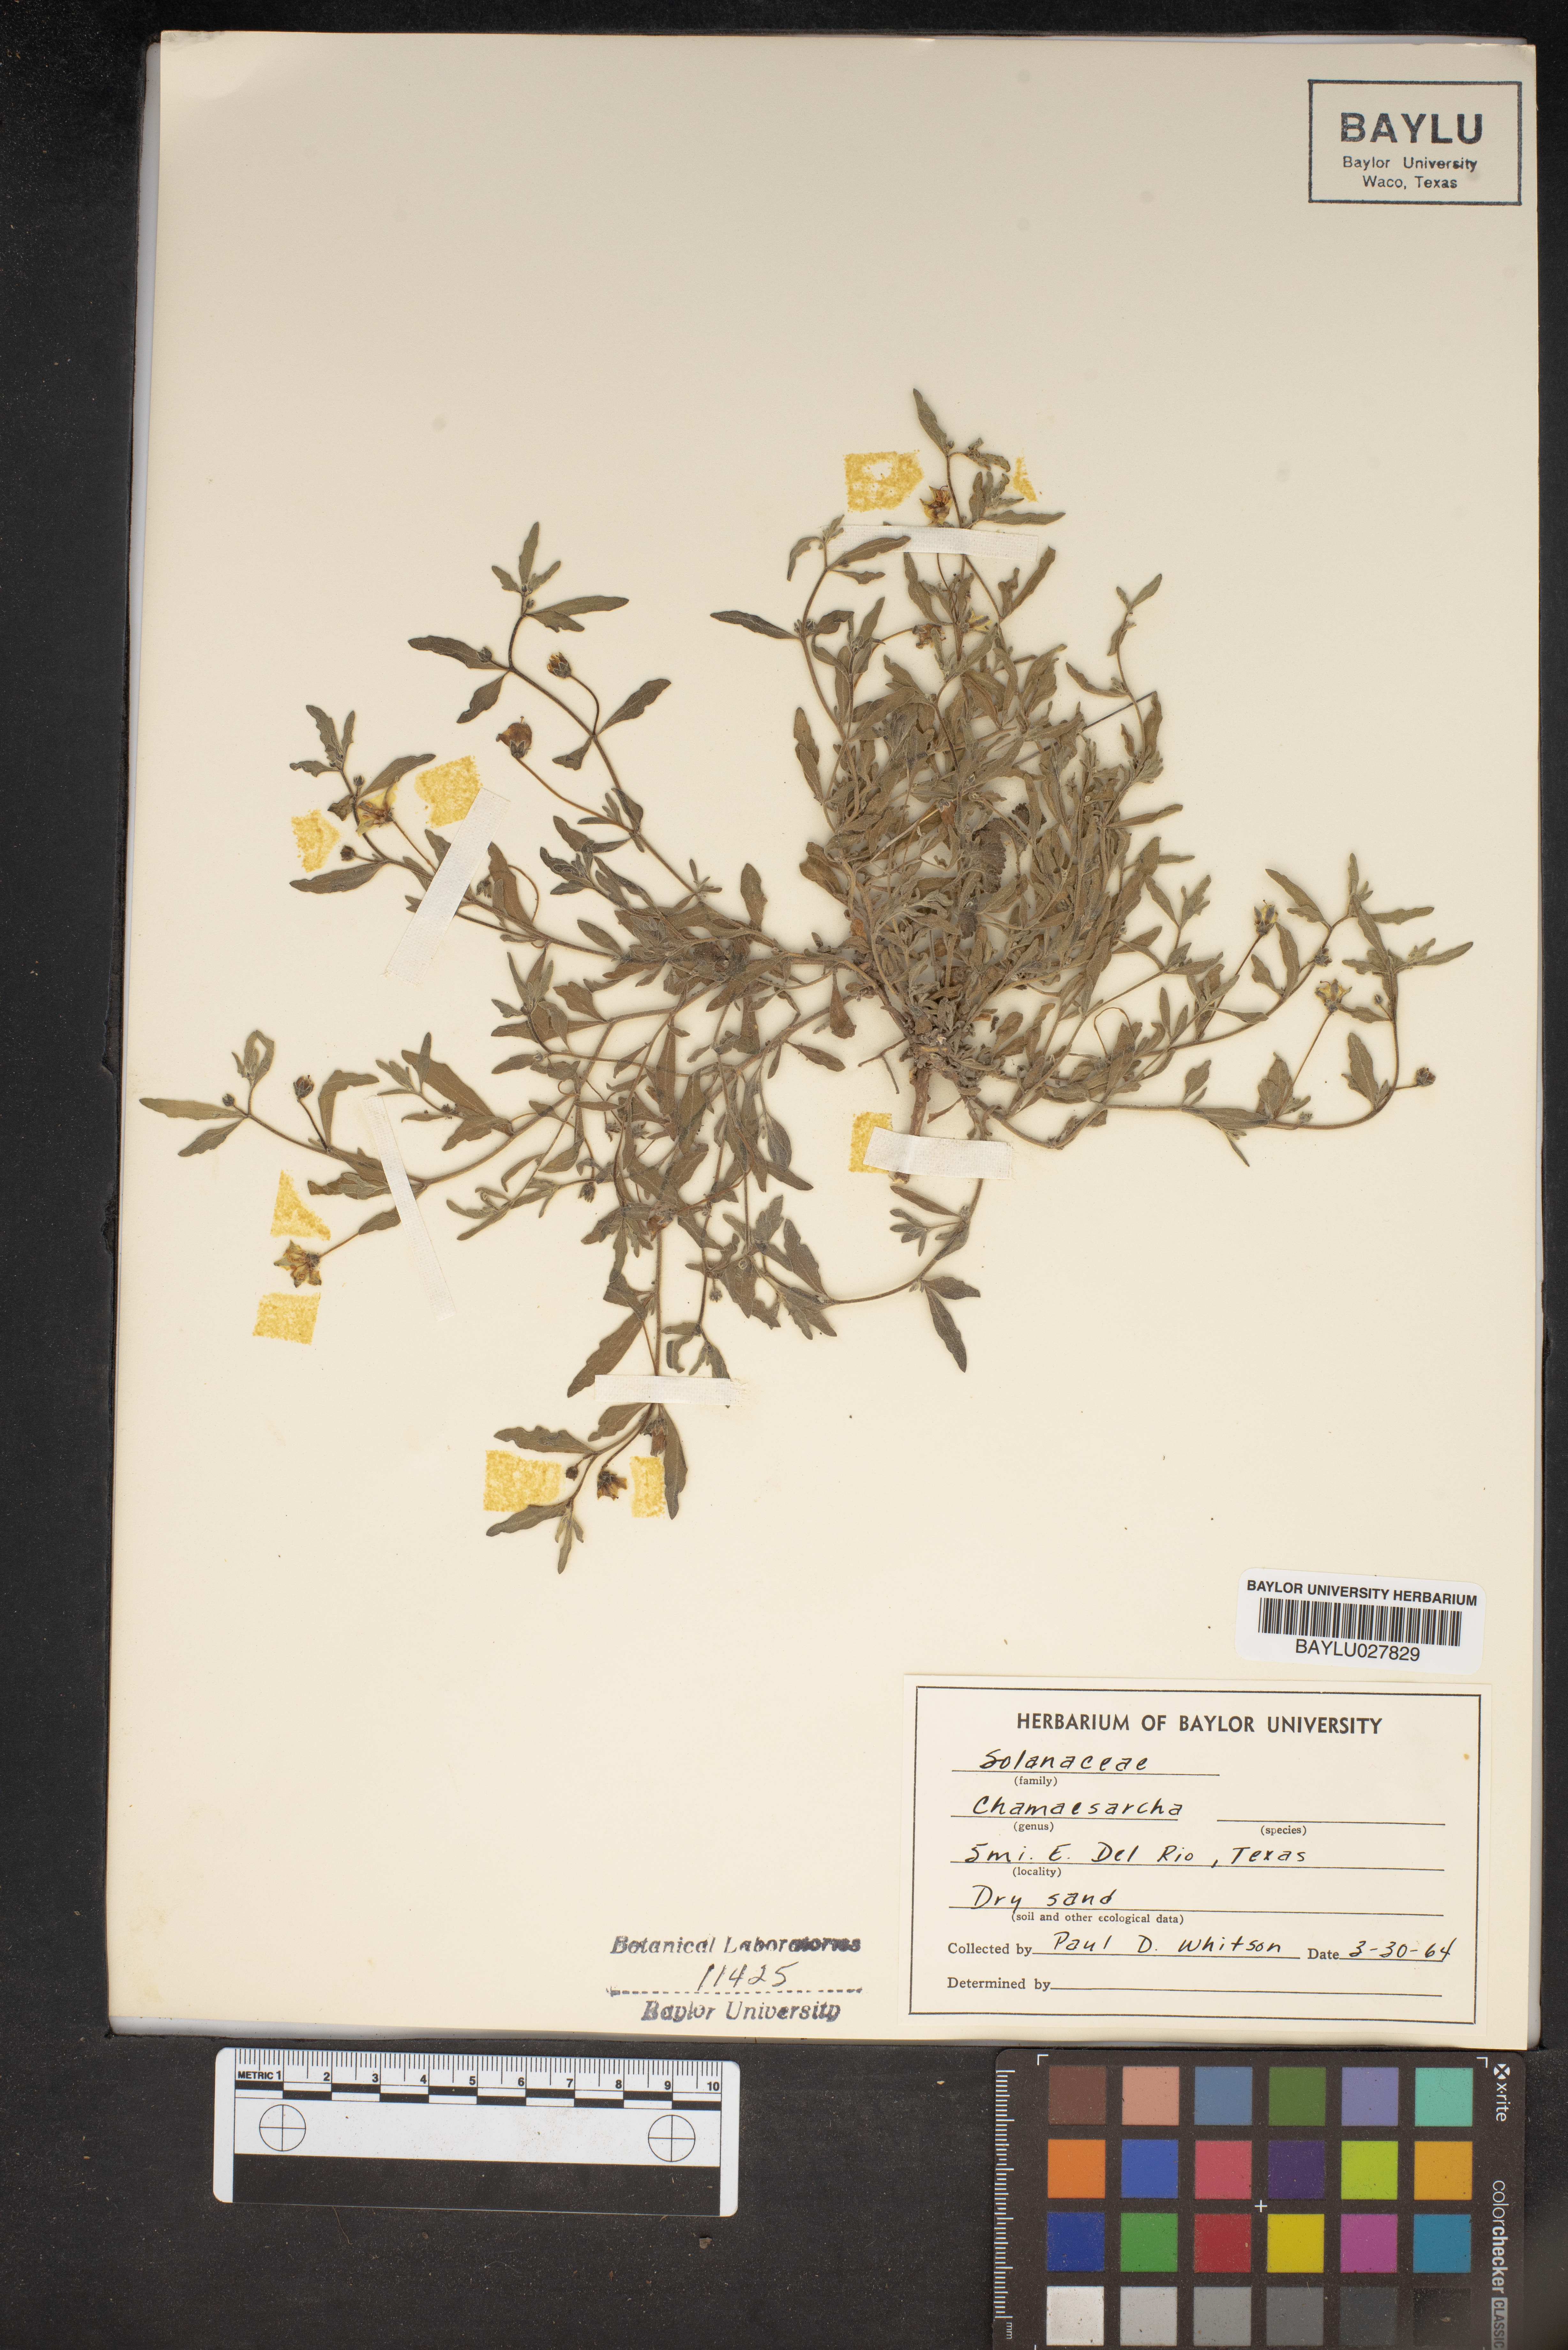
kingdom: Plantae
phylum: Tracheophyta
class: Magnoliopsida
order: Solanales
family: Solanaceae
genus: Chamaesaracha
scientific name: Chamaesaracha
